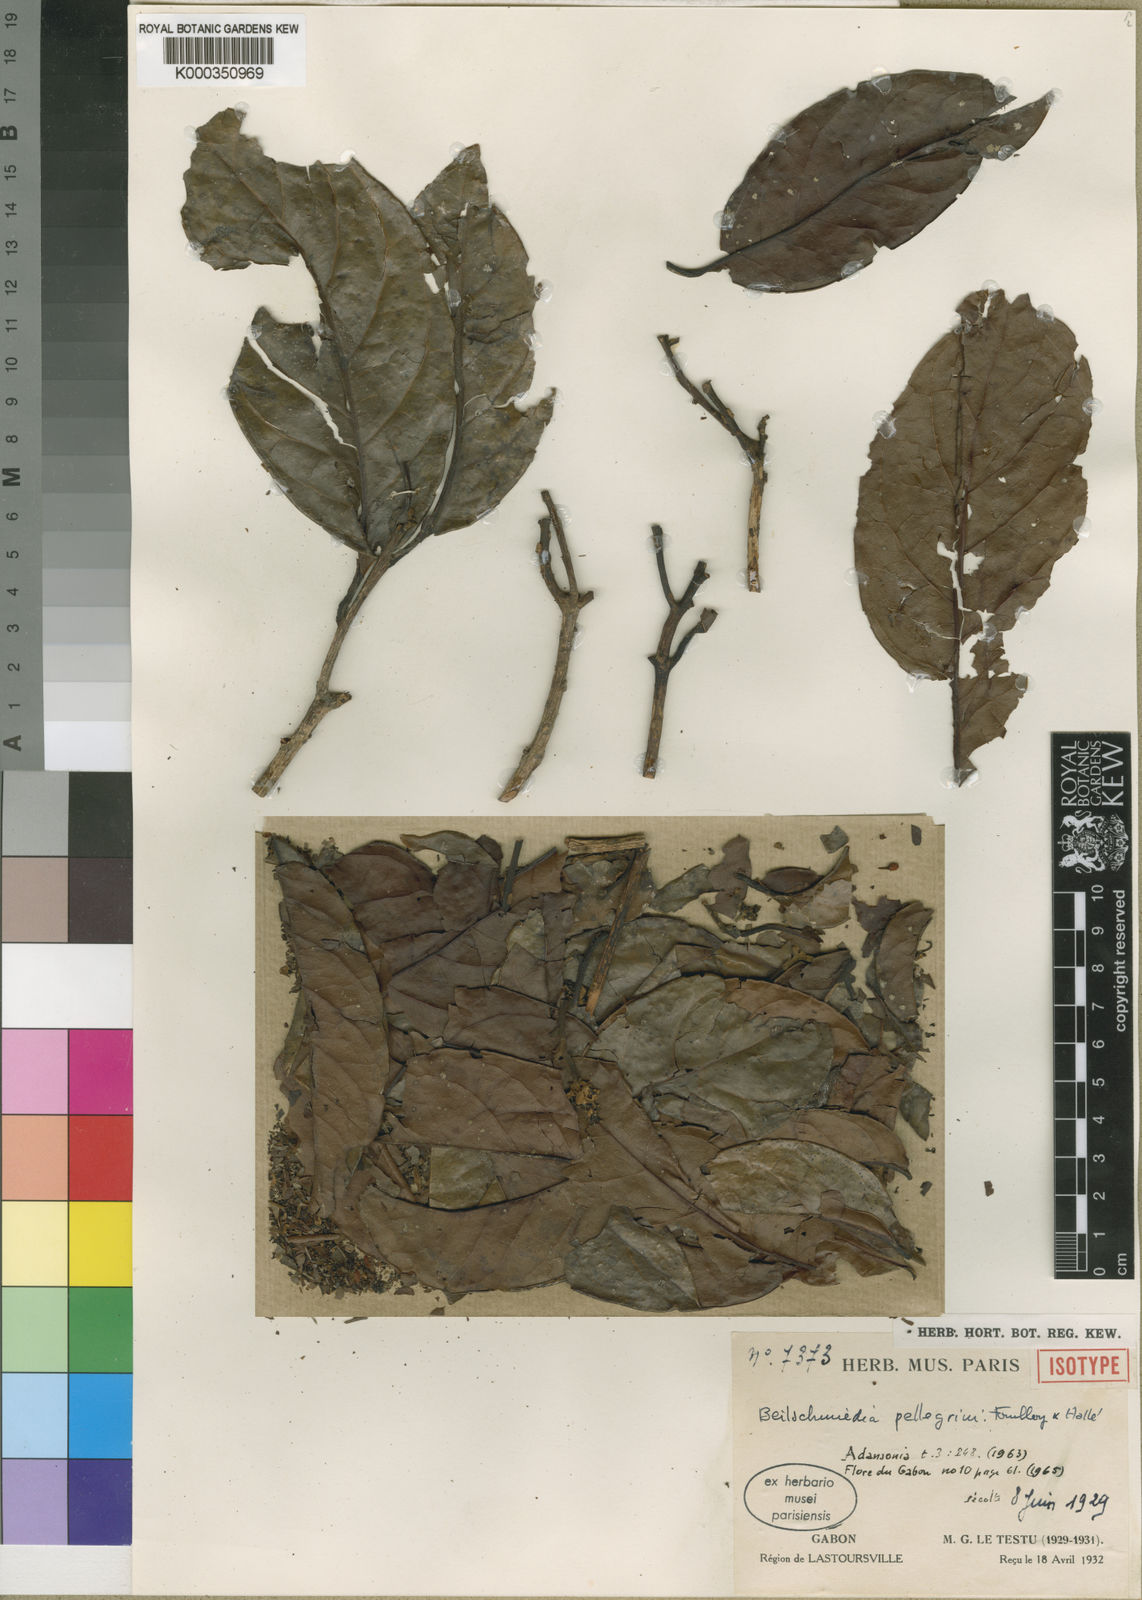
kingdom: Plantae
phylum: Tracheophyta
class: Magnoliopsida
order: Laurales
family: Lauraceae
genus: Beilschmiedia
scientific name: Beilschmiedia
